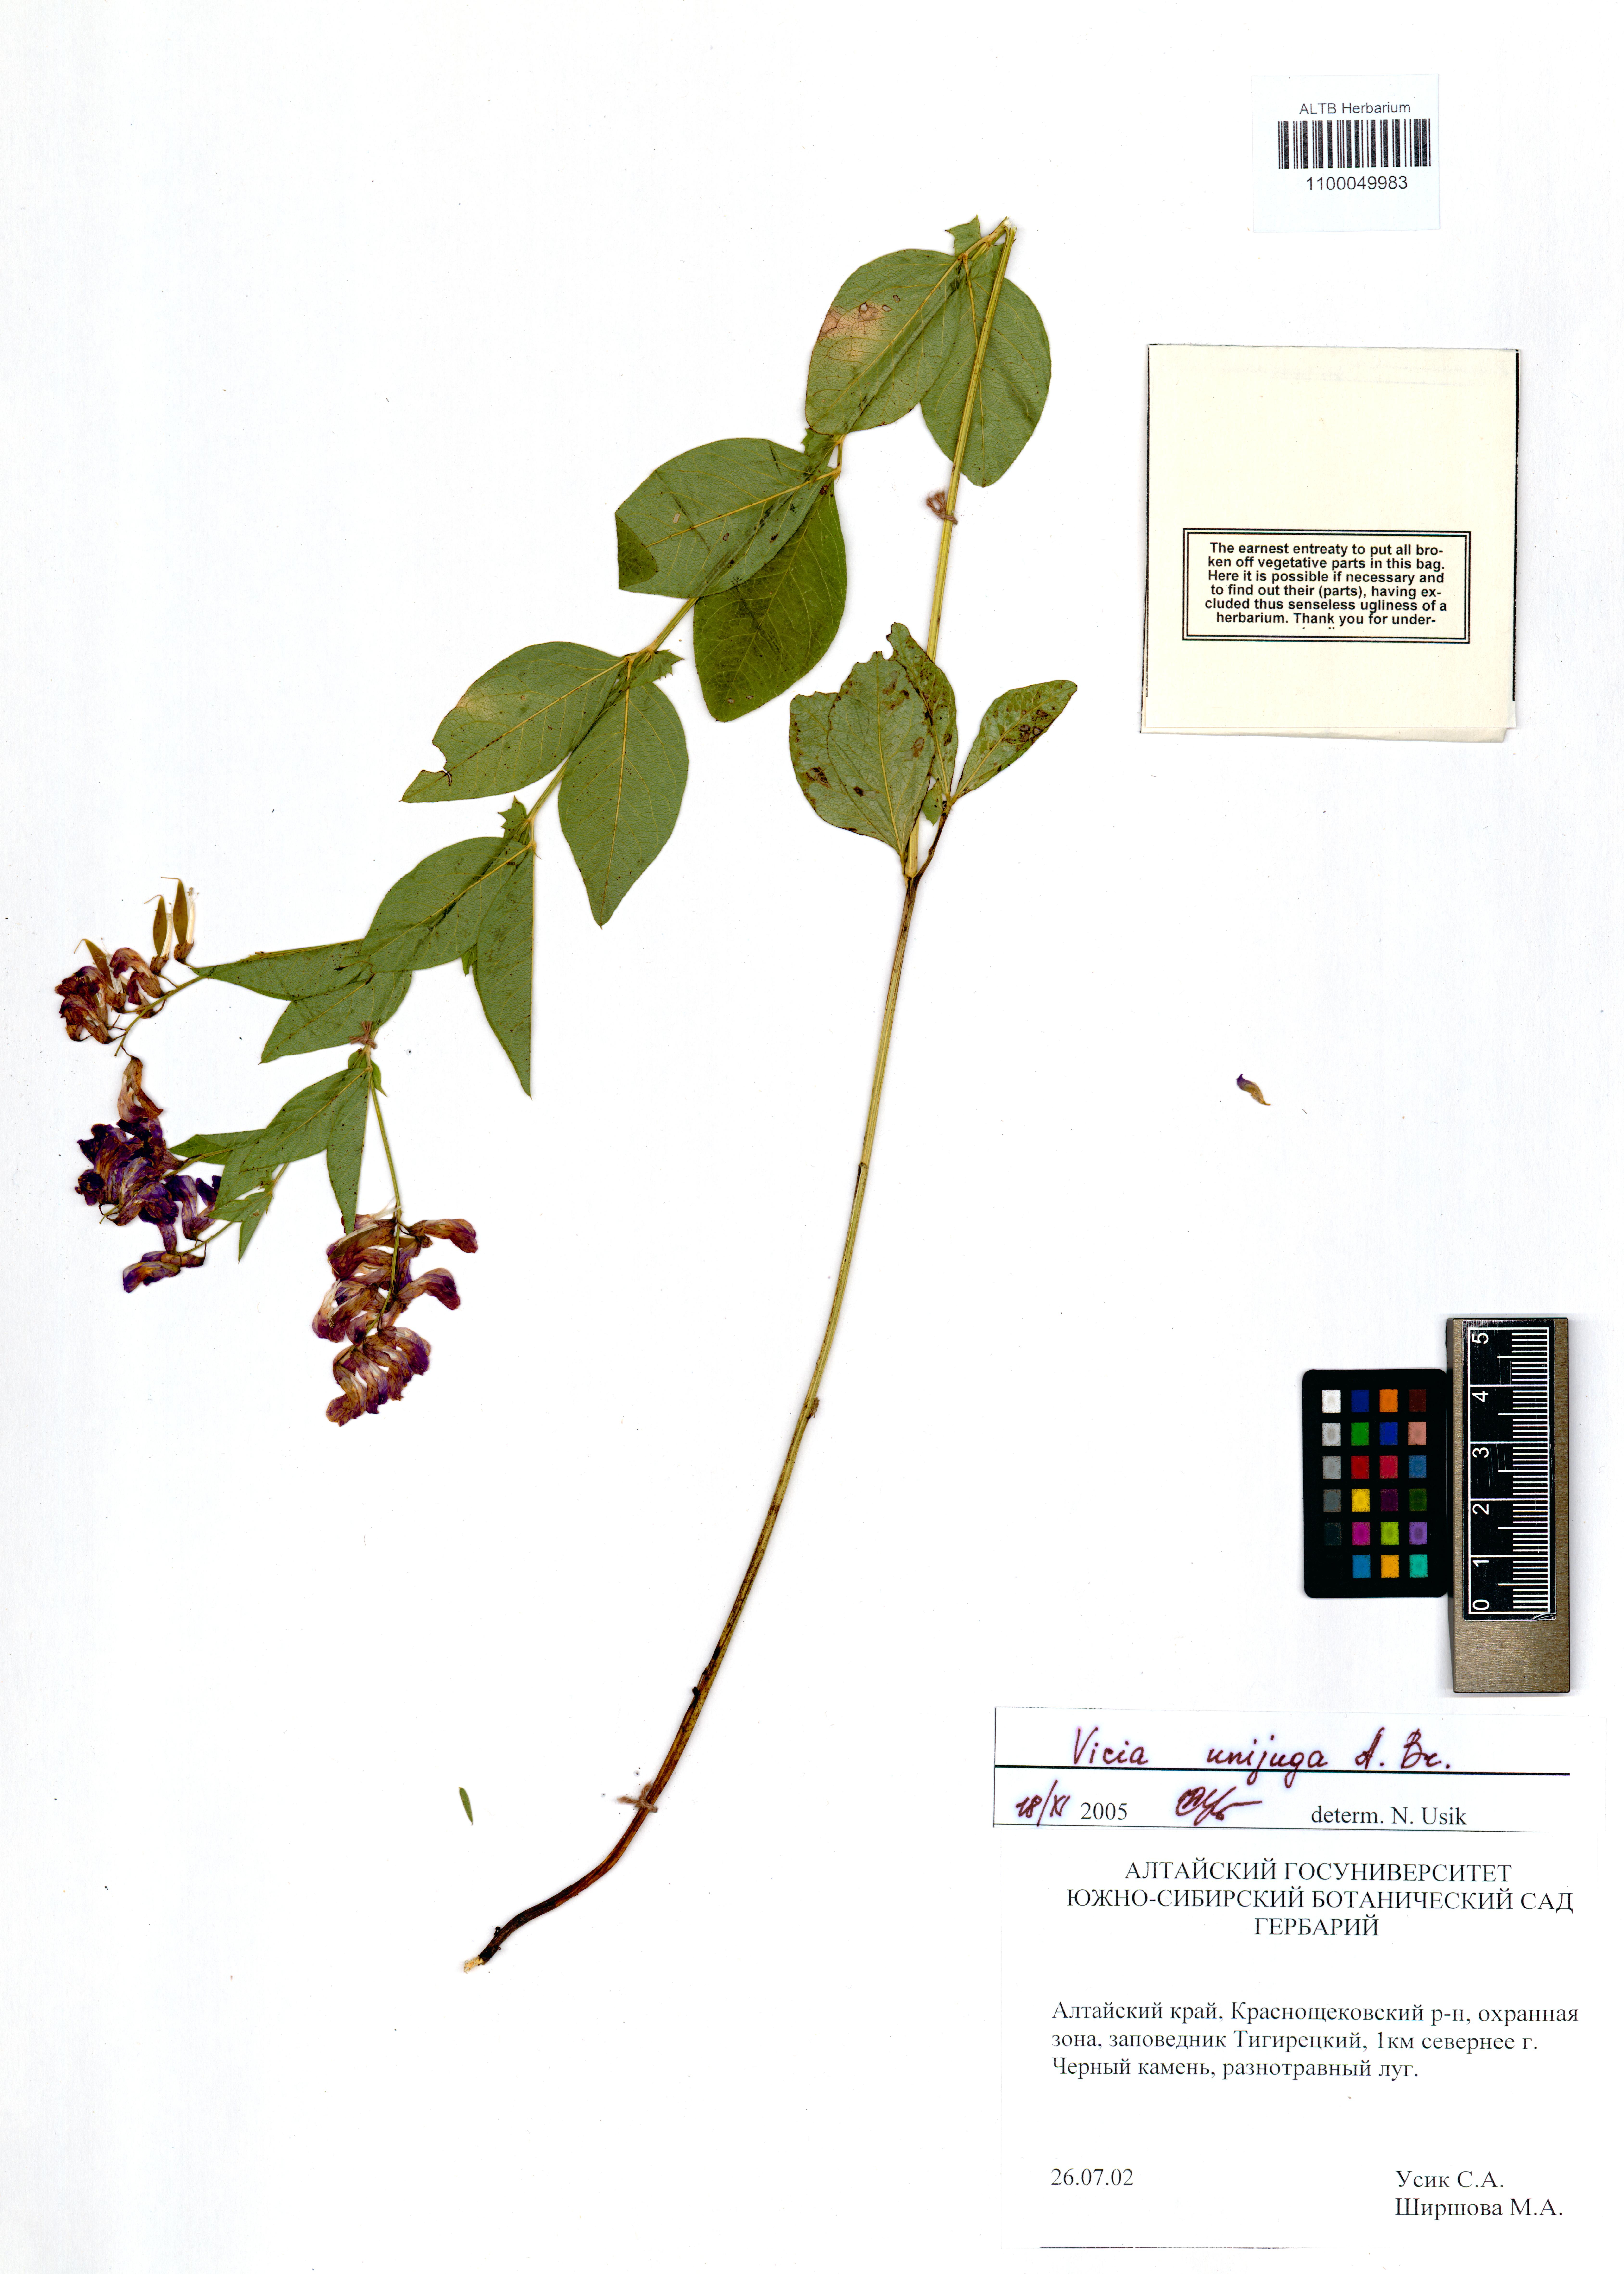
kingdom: Plantae
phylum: Tracheophyta
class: Magnoliopsida
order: Fabales
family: Fabaceae
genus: Vicia
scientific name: Vicia unijuga
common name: Two-leaf vetch
